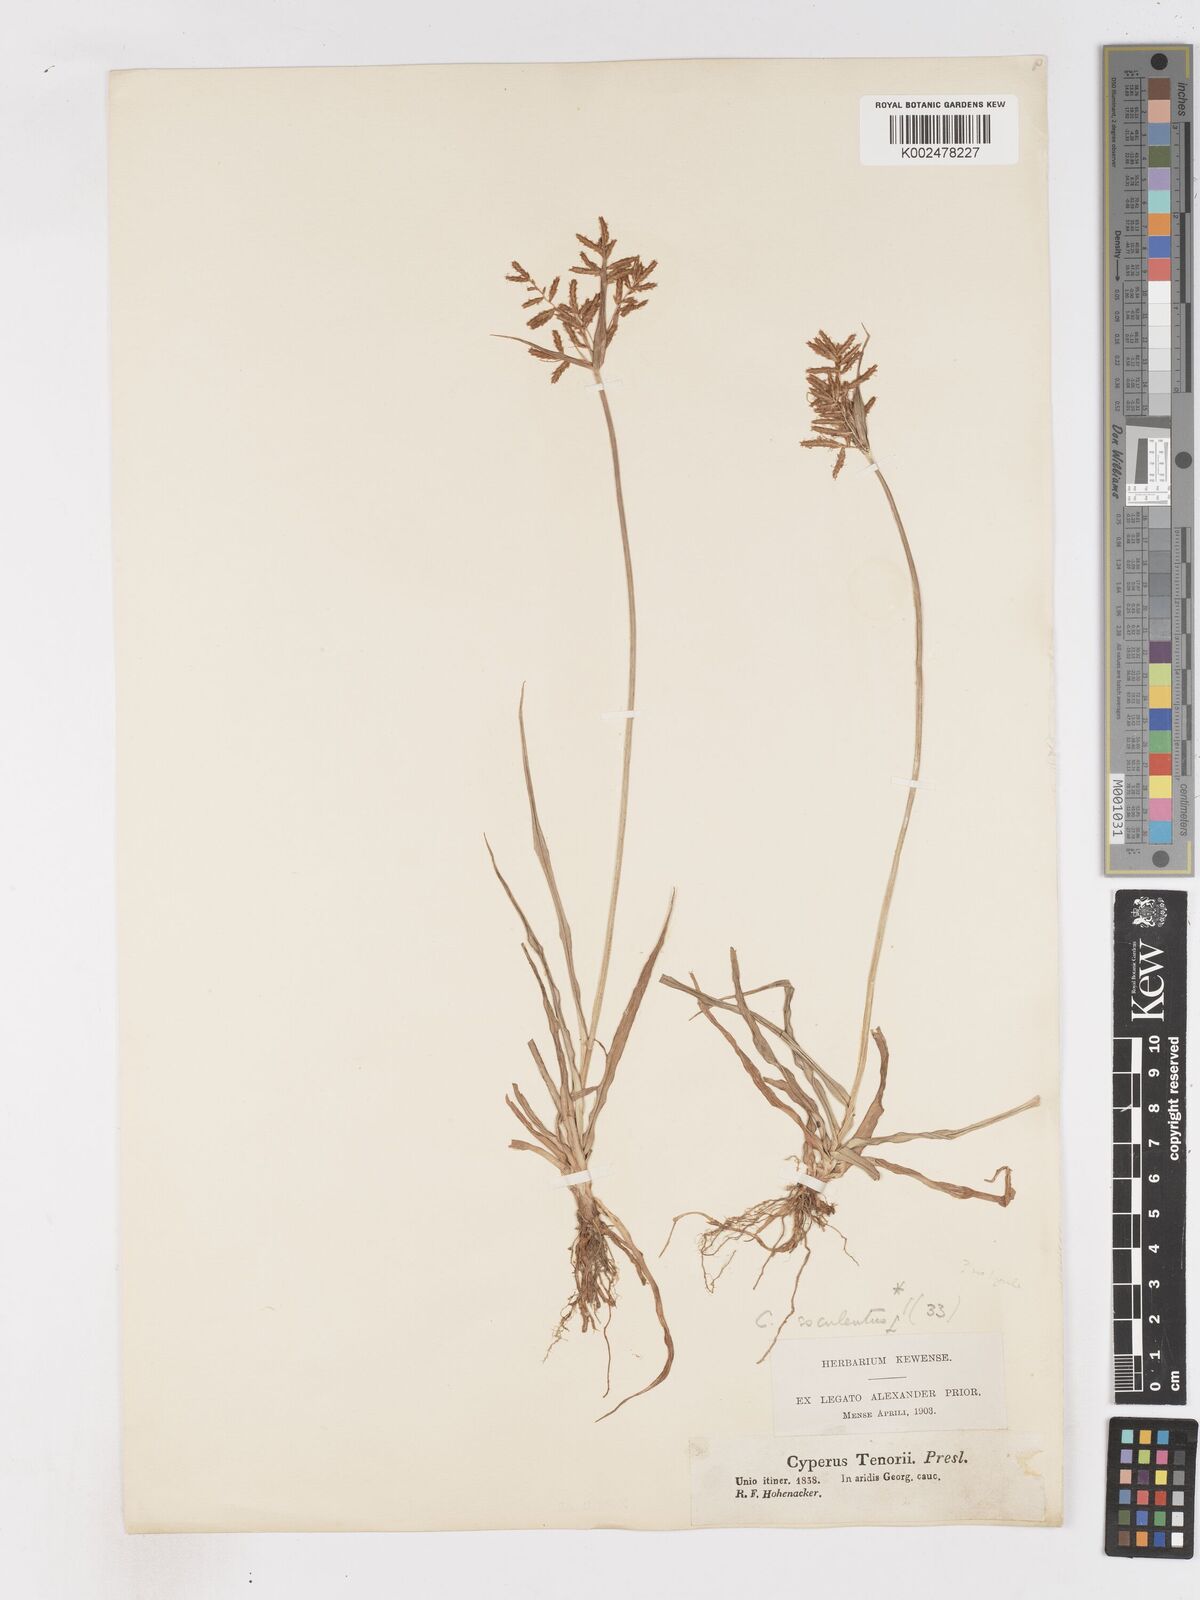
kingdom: Plantae
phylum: Tracheophyta
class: Liliopsida
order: Poales
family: Cyperaceae
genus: Cyperus
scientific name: Cyperus esculentus
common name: Yellow nutsedge
